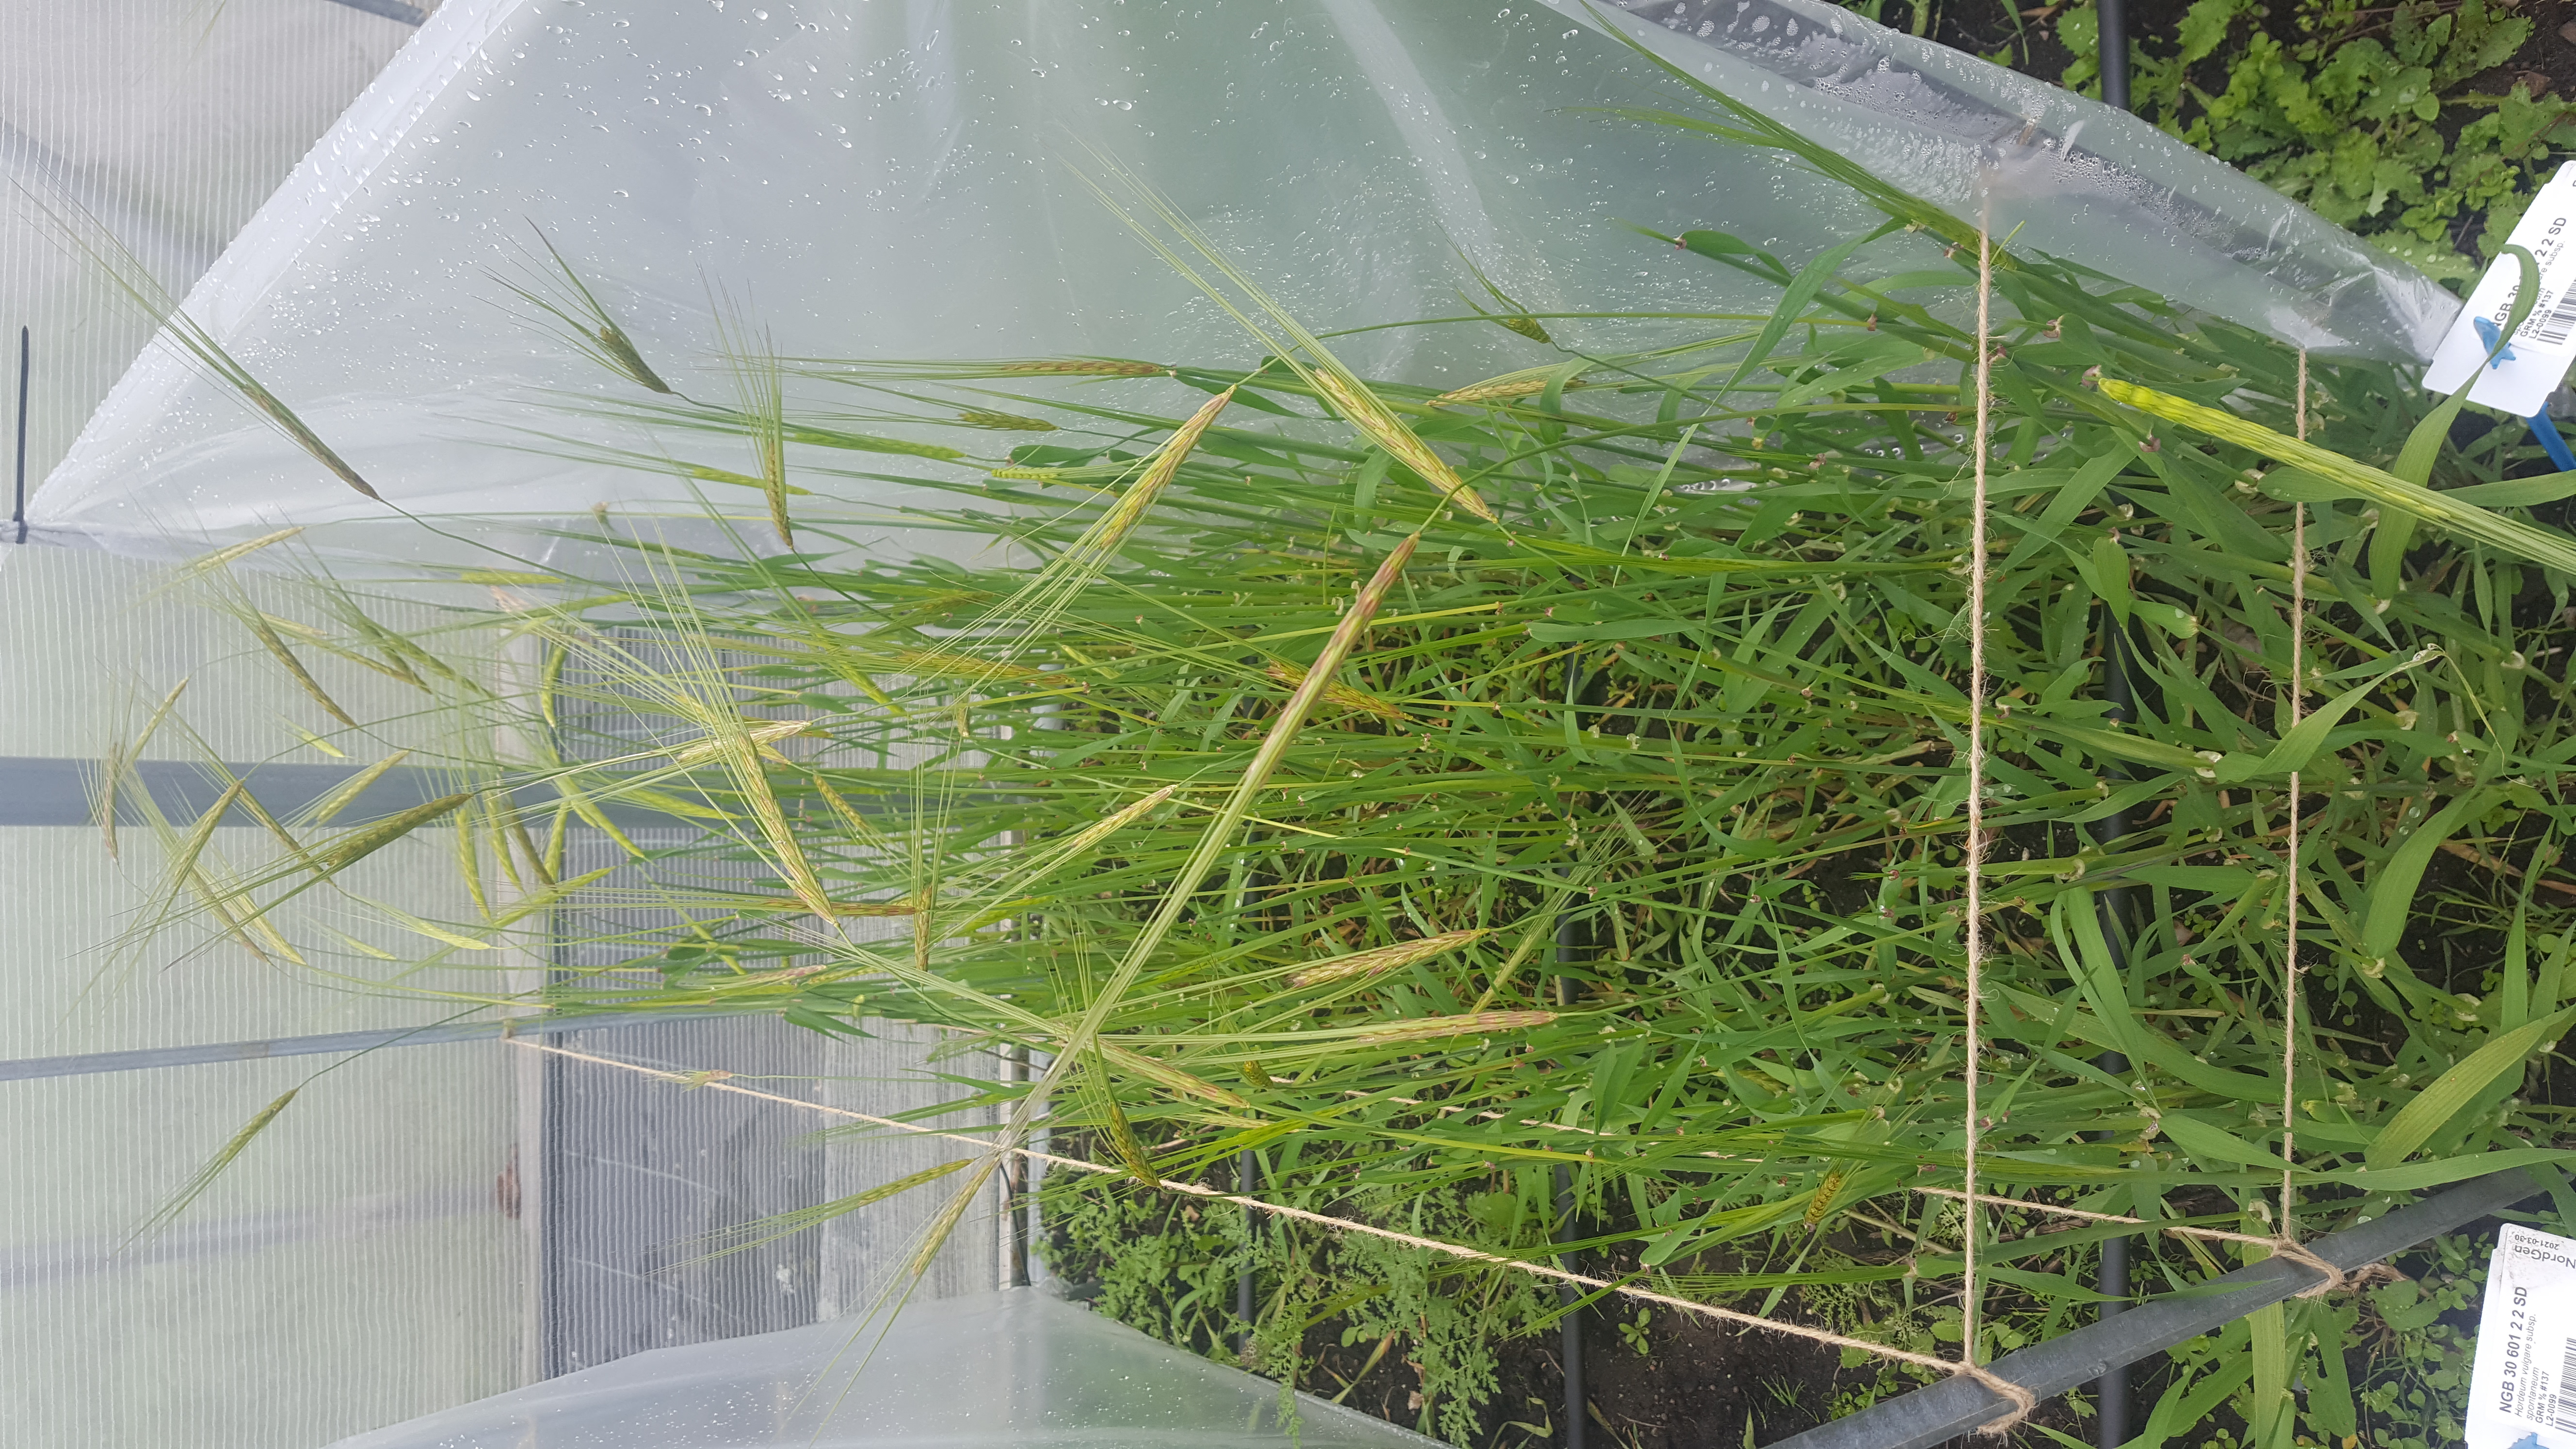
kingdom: Plantae
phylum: Tracheophyta
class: Liliopsida
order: Poales
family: Poaceae
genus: Hordeum
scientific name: Hordeum spontaneum
